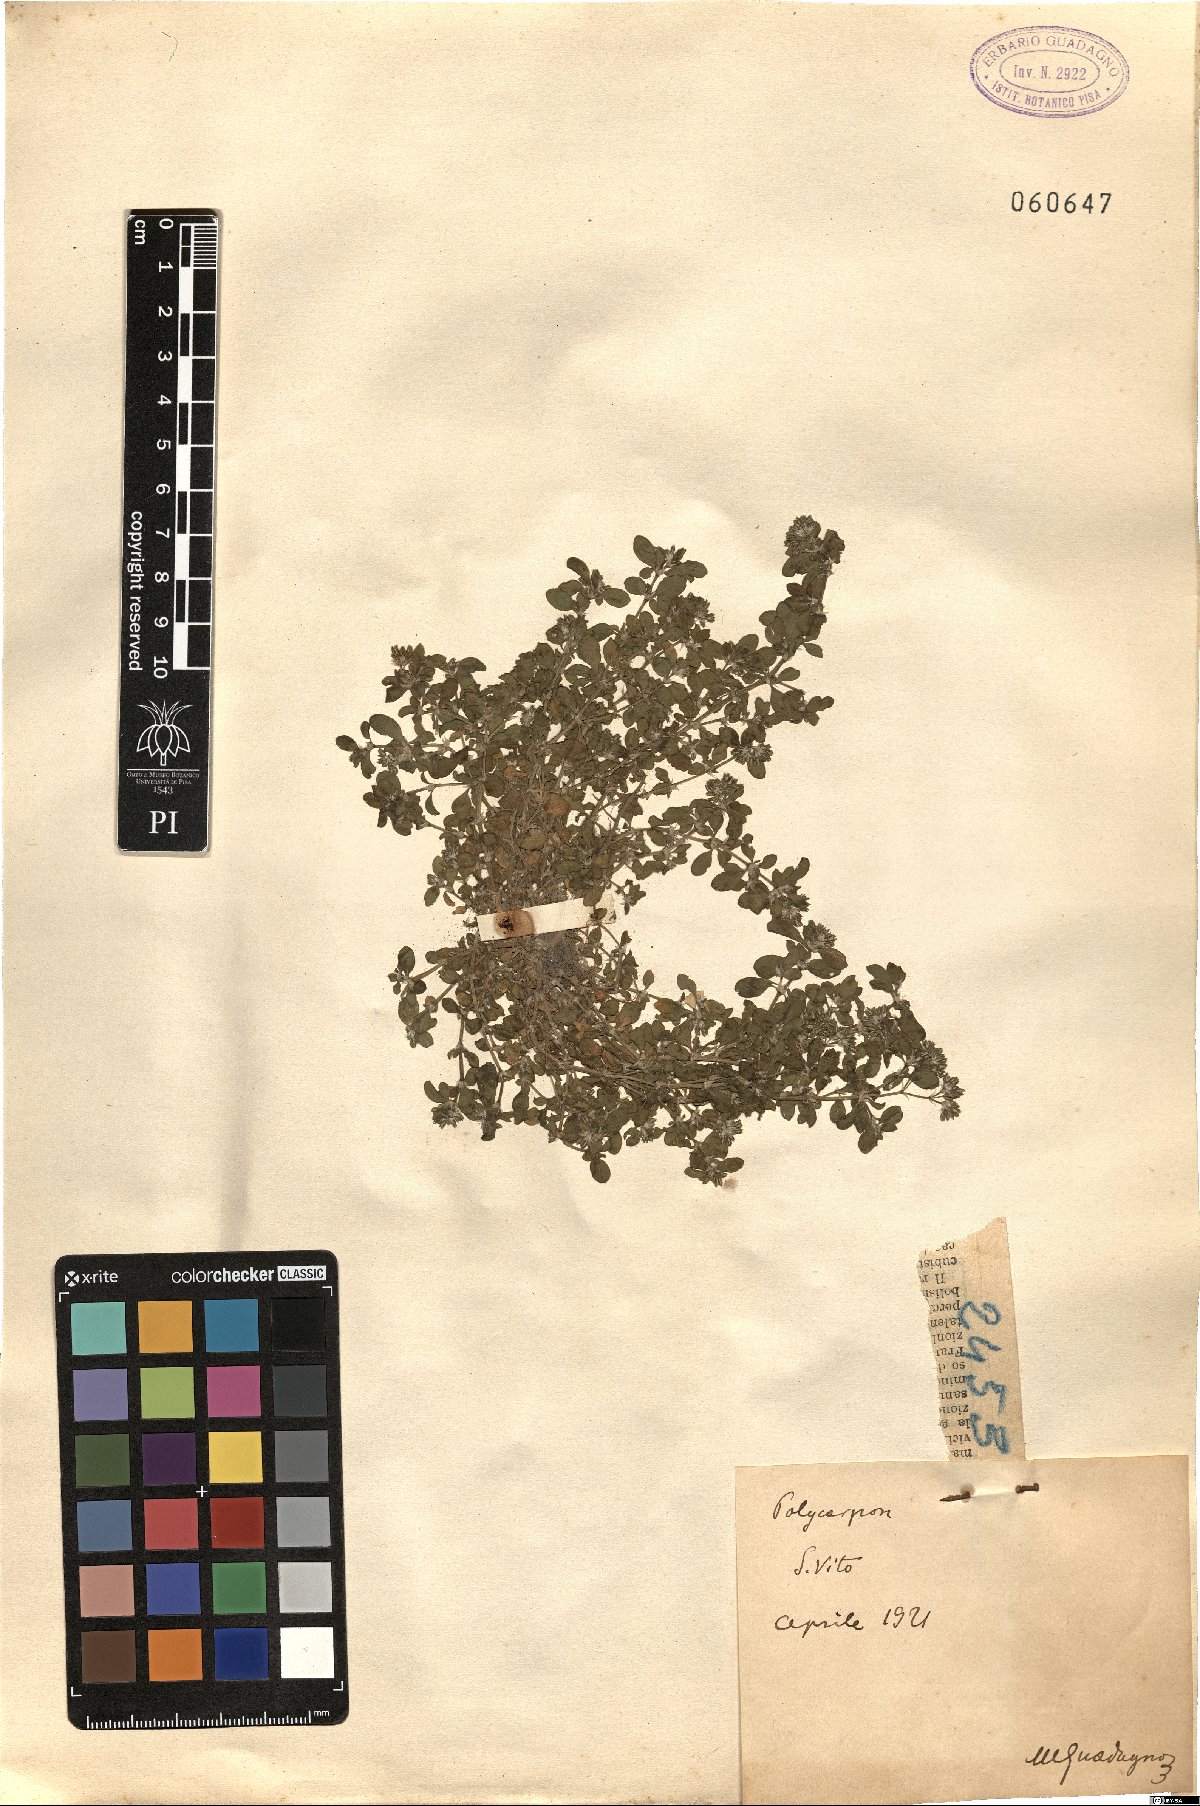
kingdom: Plantae
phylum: Tracheophyta
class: Magnoliopsida
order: Caryophyllales
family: Caryophyllaceae
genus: Polycarpon
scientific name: Polycarpon
